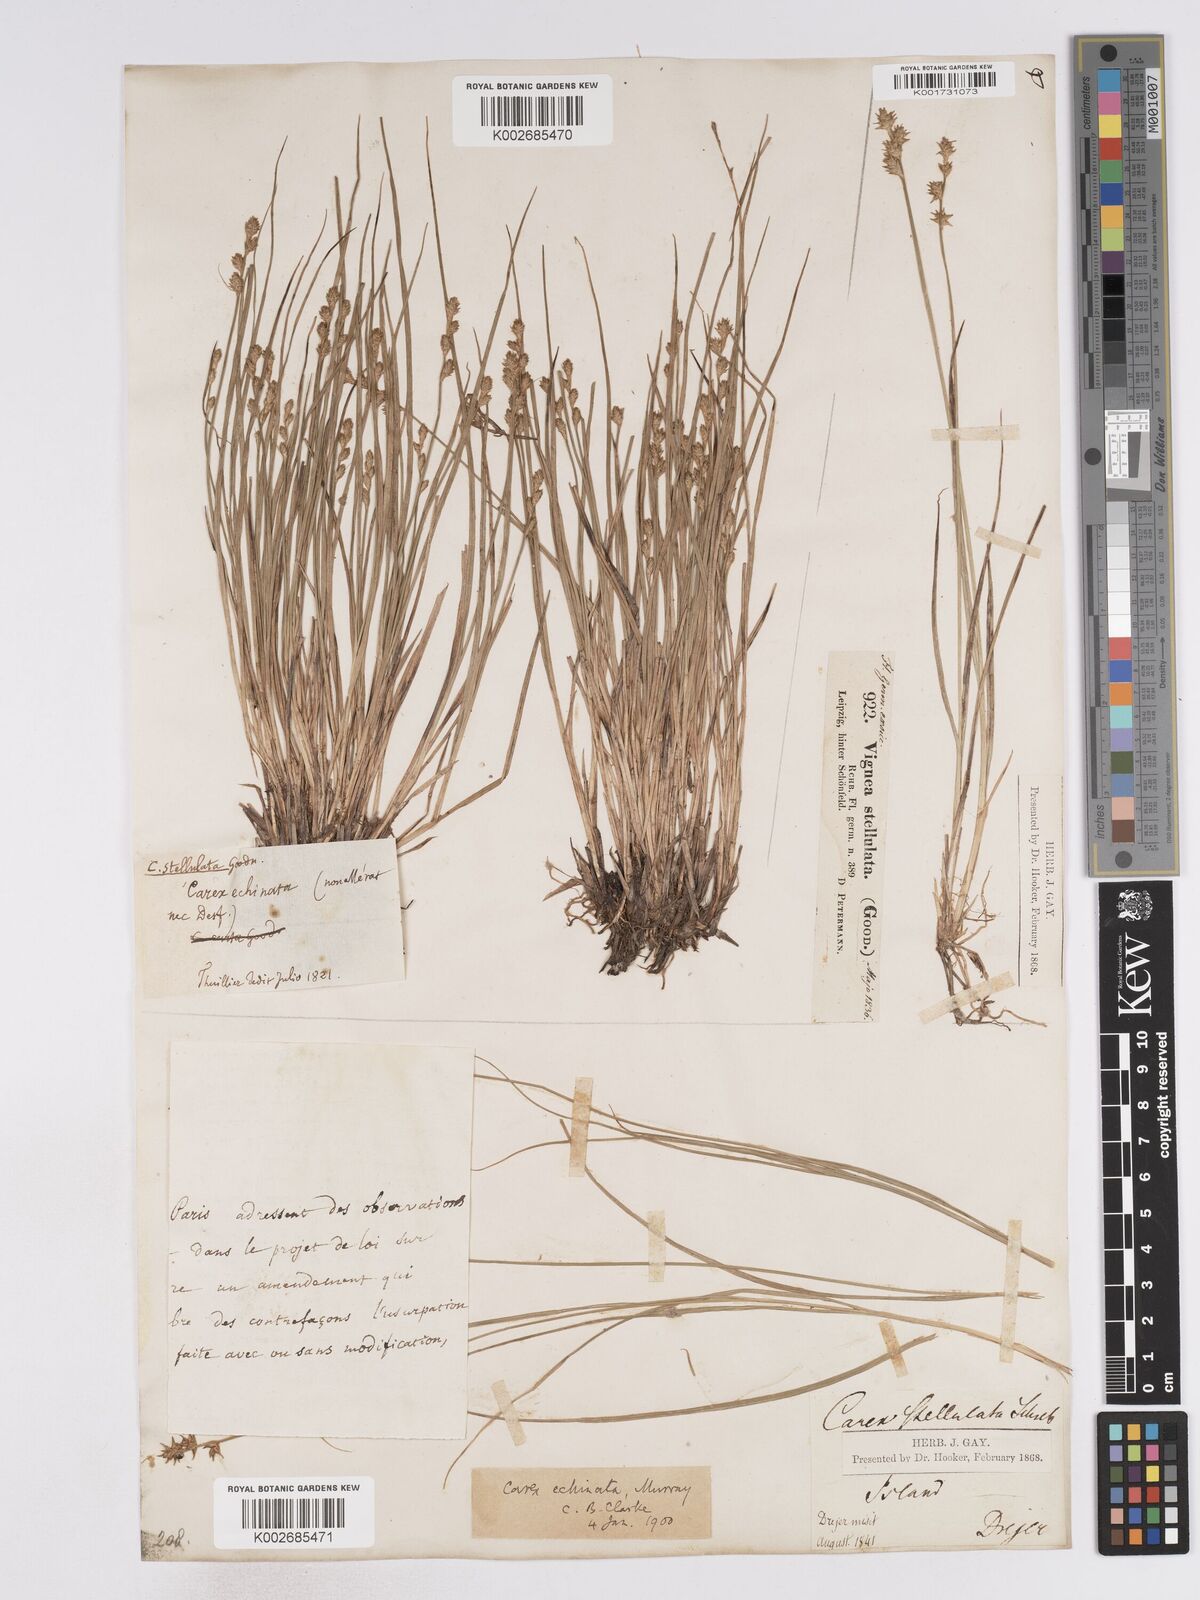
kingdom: Plantae
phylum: Tracheophyta
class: Liliopsida
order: Poales
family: Cyperaceae
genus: Carex
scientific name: Carex echinata
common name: Star sedge
